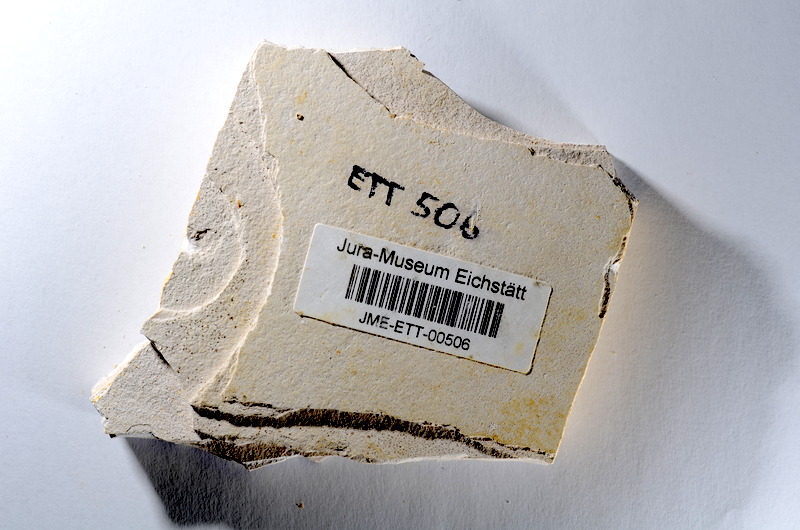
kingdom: Animalia
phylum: Chordata
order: Salmoniformes
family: Orthogonikleithridae
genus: Orthogonikleithrus
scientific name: Orthogonikleithrus hoelli
